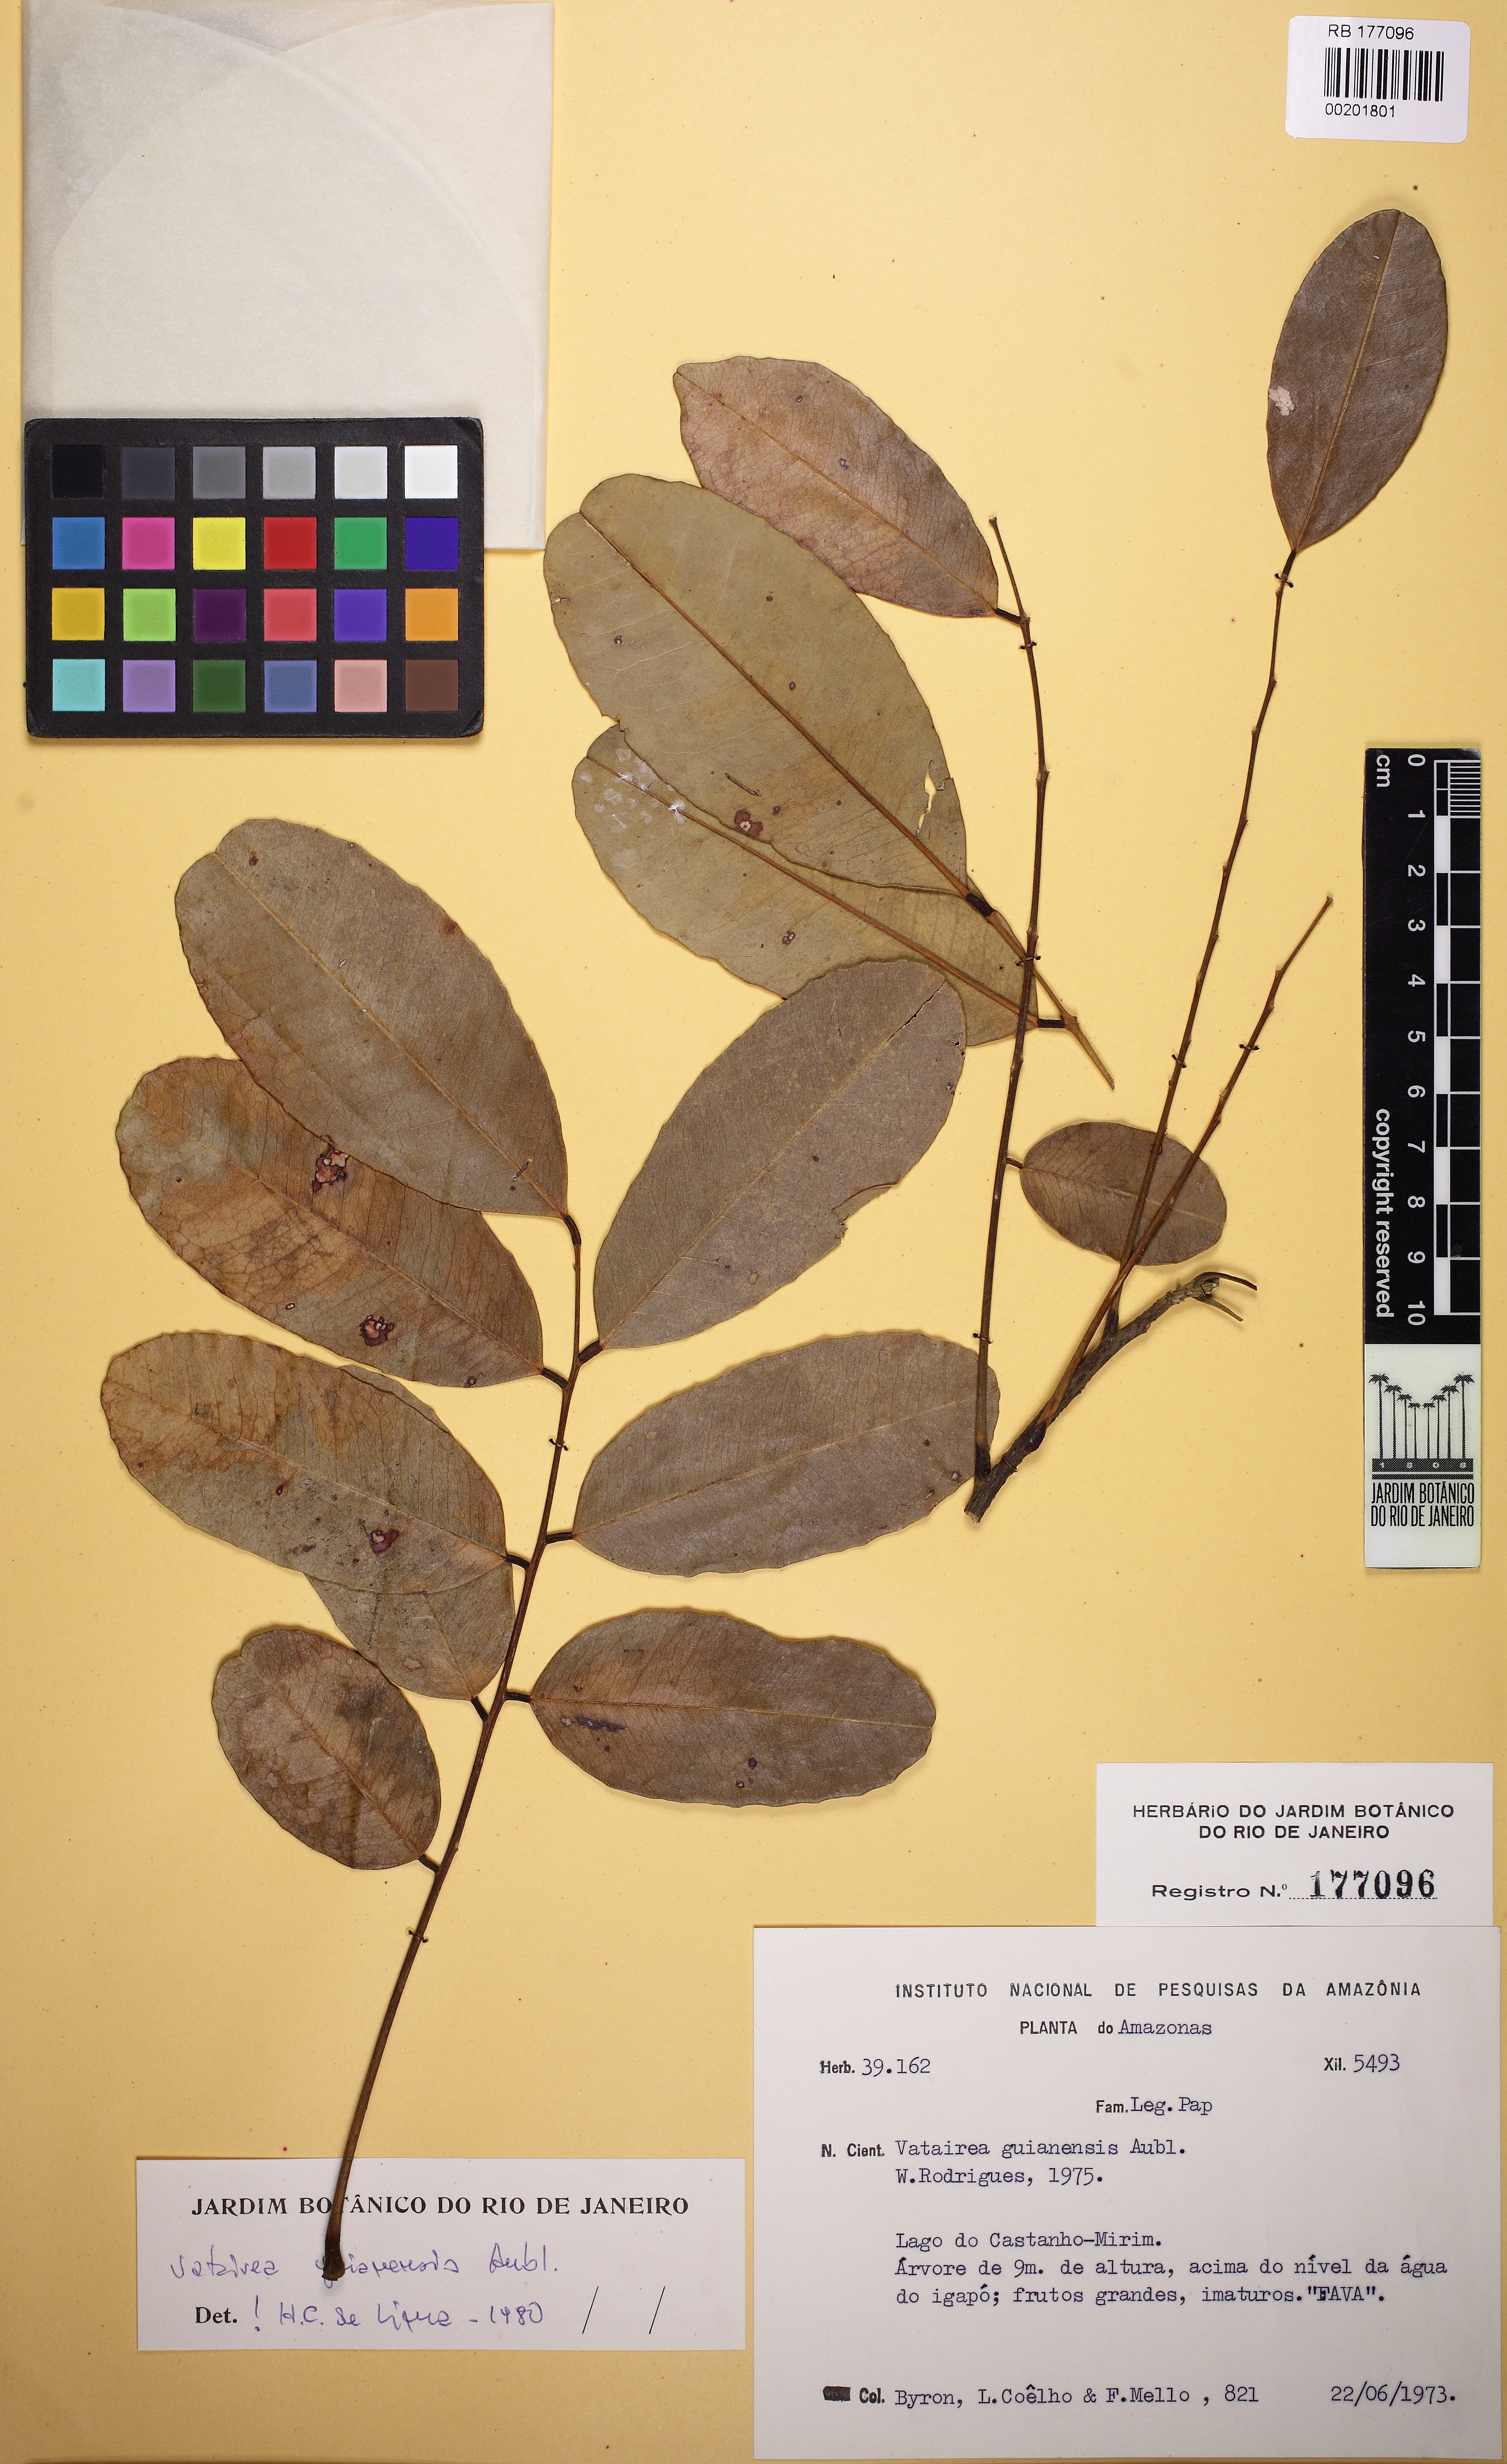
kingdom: Plantae
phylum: Tracheophyta
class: Magnoliopsida
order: Fabales
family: Fabaceae
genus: Vatairea
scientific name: Vatairea guianensis
